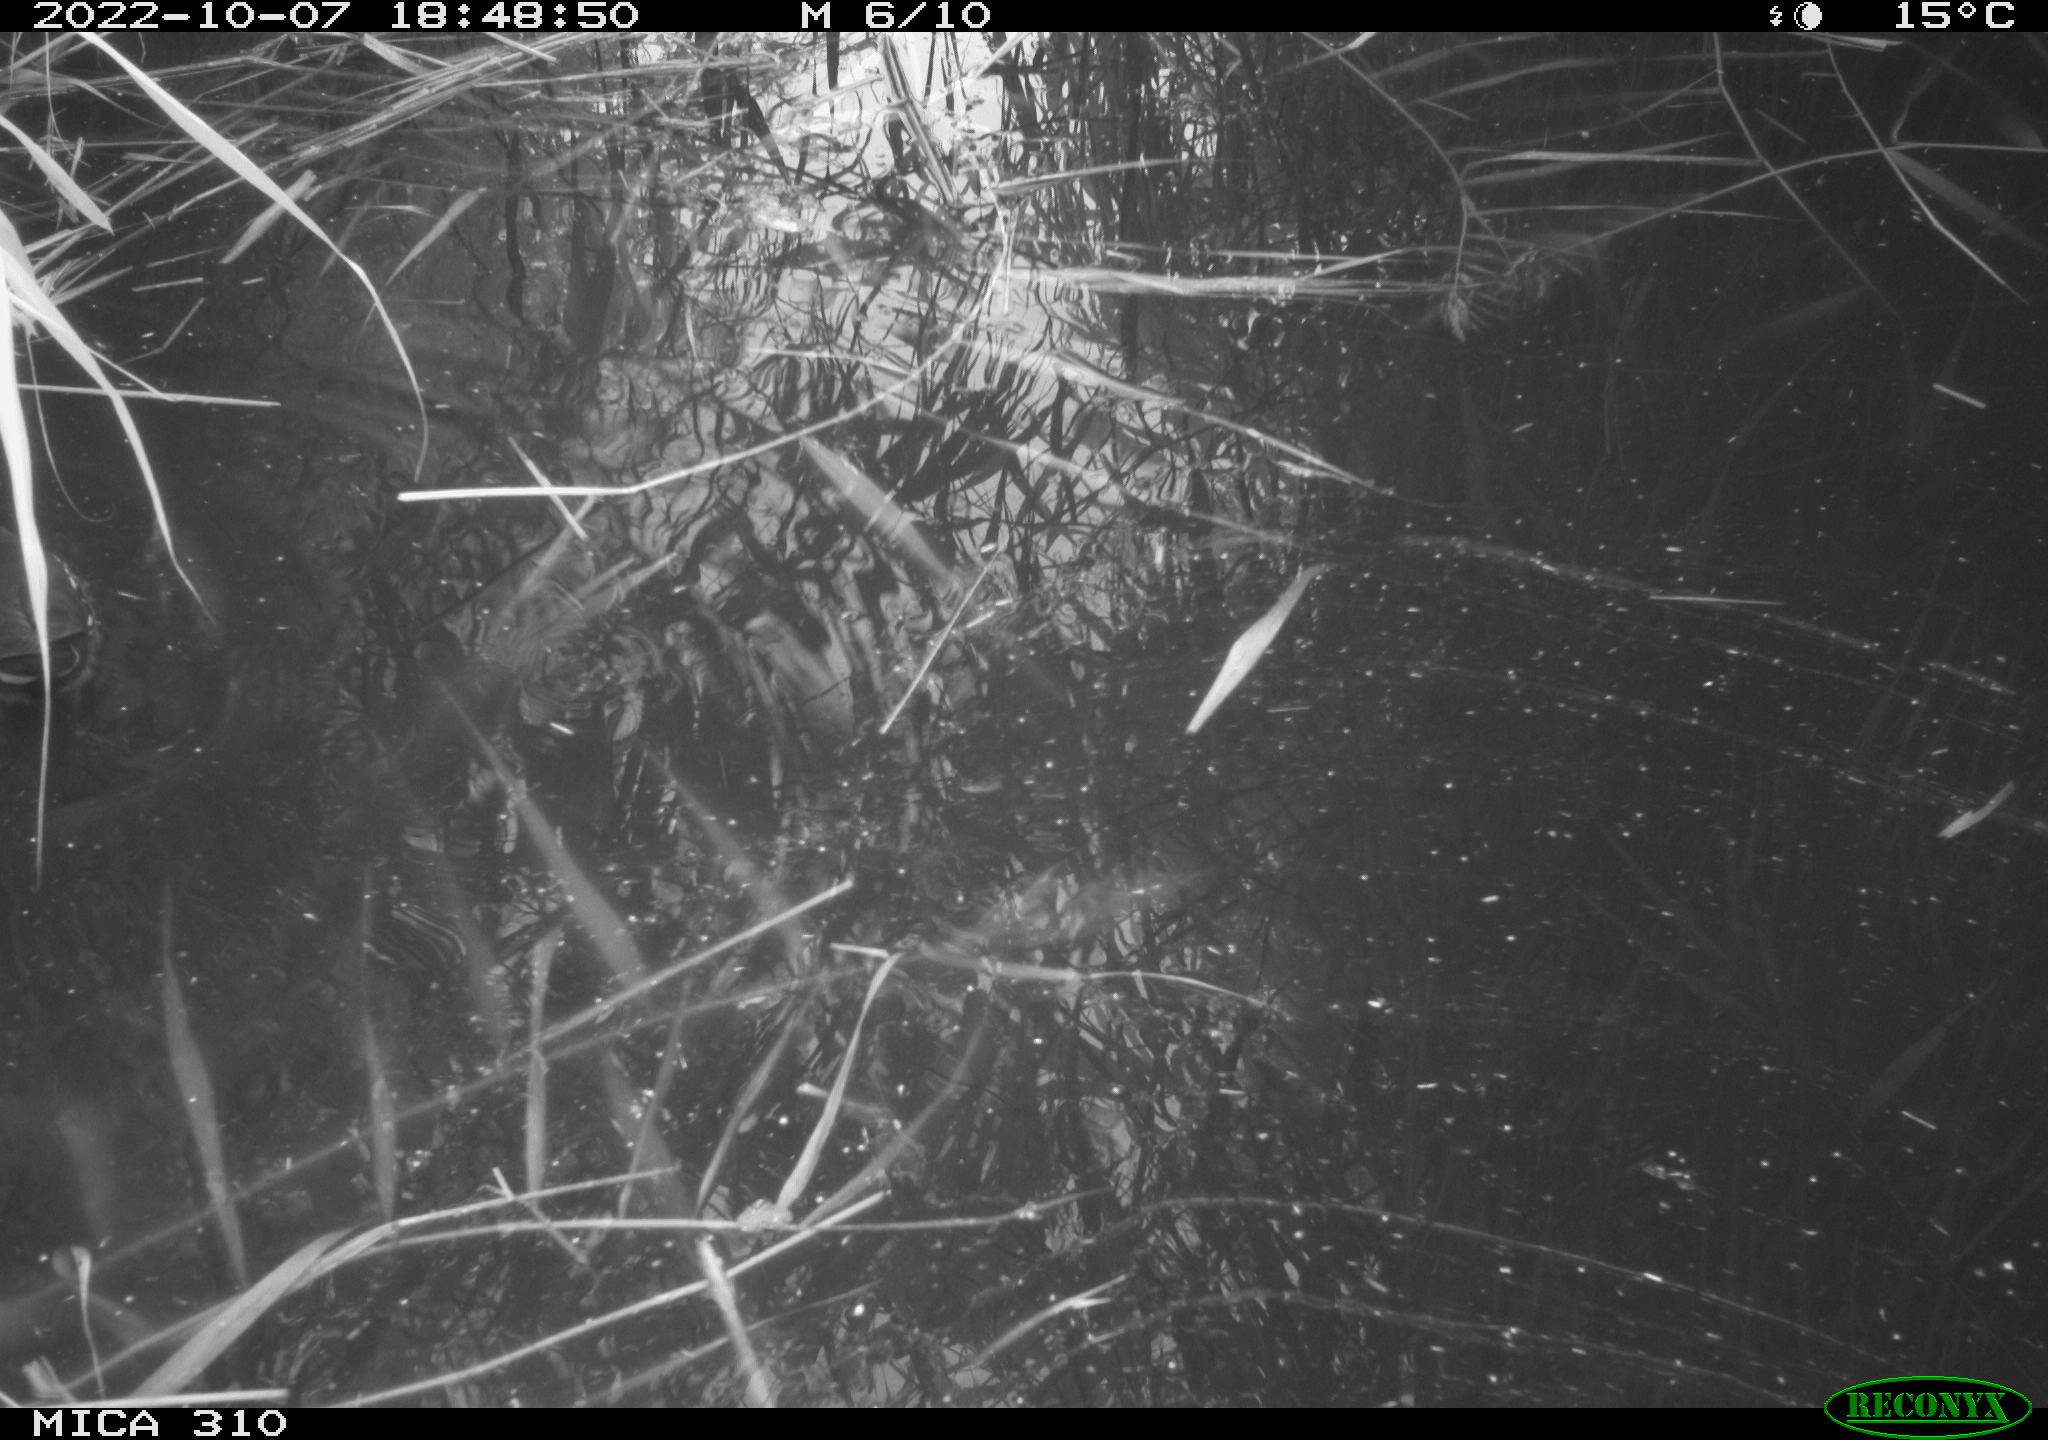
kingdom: Animalia
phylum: Chordata
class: Aves
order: Gruiformes
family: Rallidae
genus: Gallinula
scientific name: Gallinula chloropus
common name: Common moorhen
